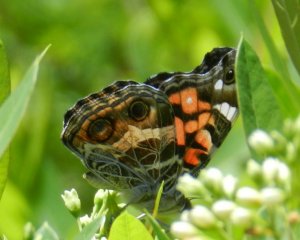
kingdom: Animalia
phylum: Arthropoda
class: Insecta
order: Lepidoptera
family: Nymphalidae
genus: Vanessa
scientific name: Vanessa virginiensis
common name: American Lady
